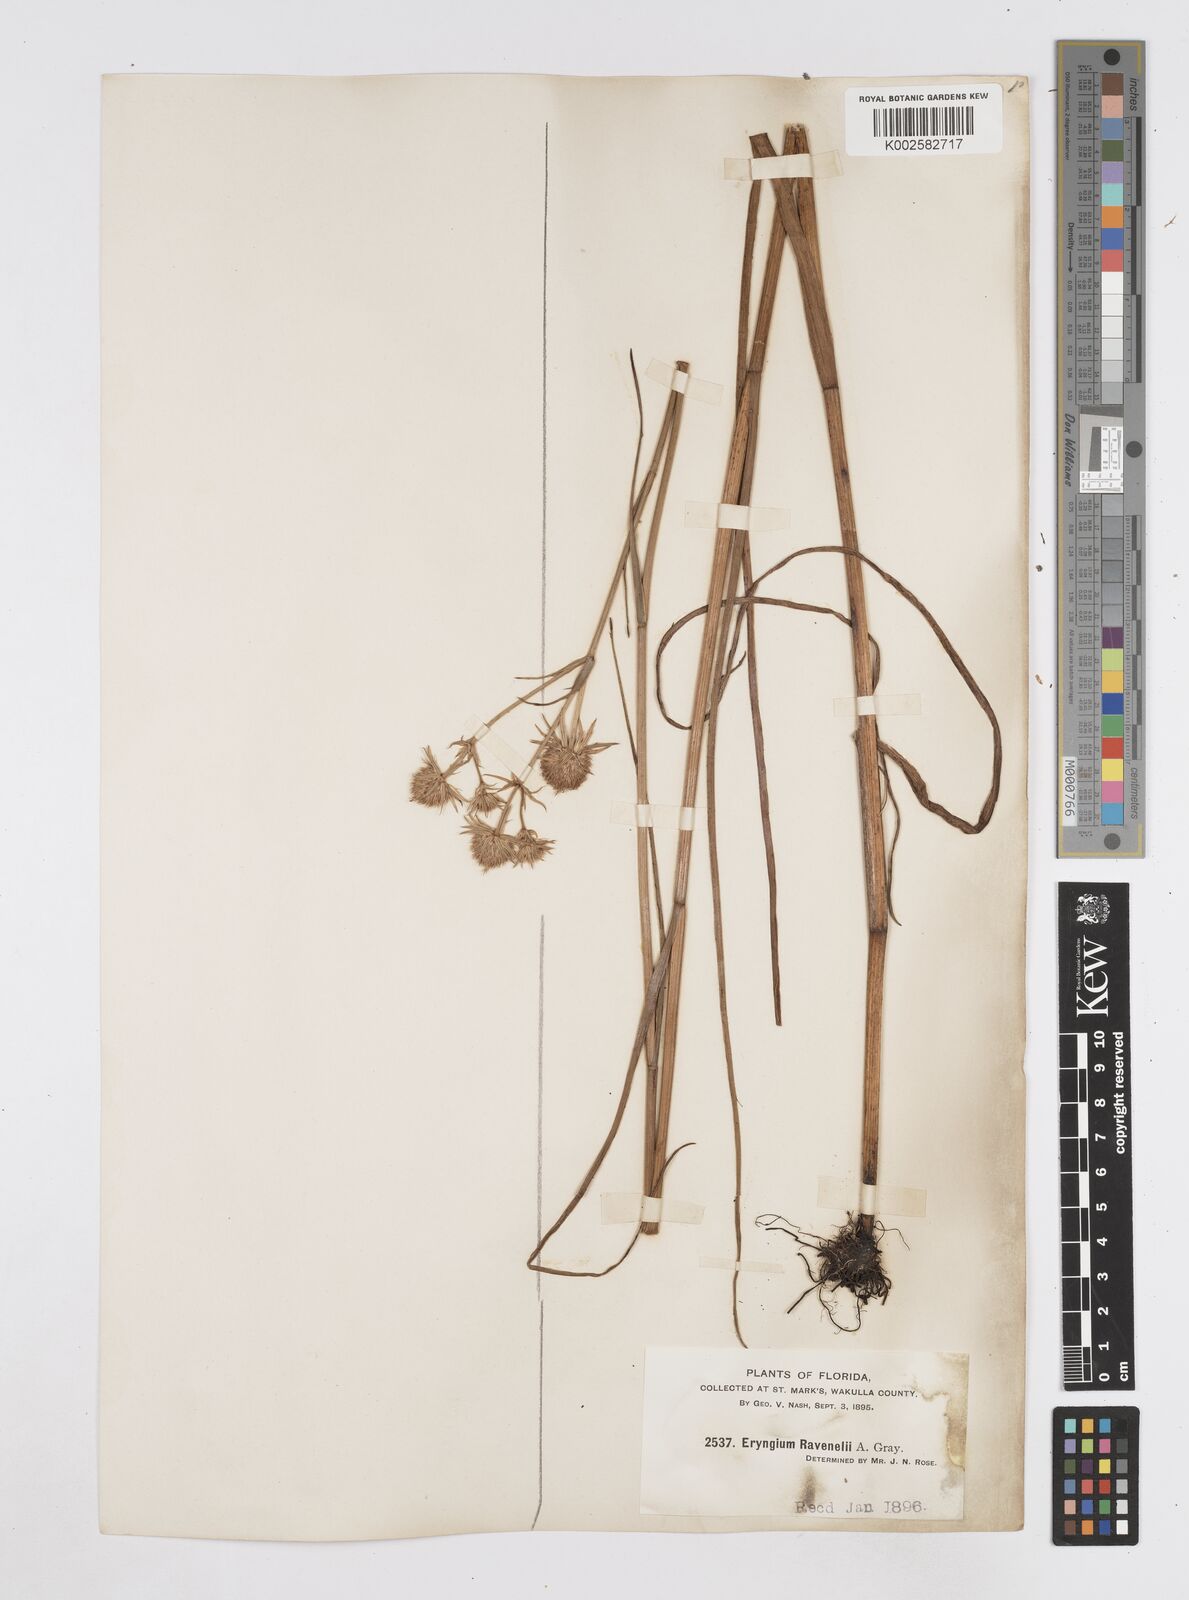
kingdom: Plantae
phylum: Tracheophyta
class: Magnoliopsida
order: Apiales
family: Apiaceae
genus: Eryngium
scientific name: Eryngium aquaticum
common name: Water eryngo
